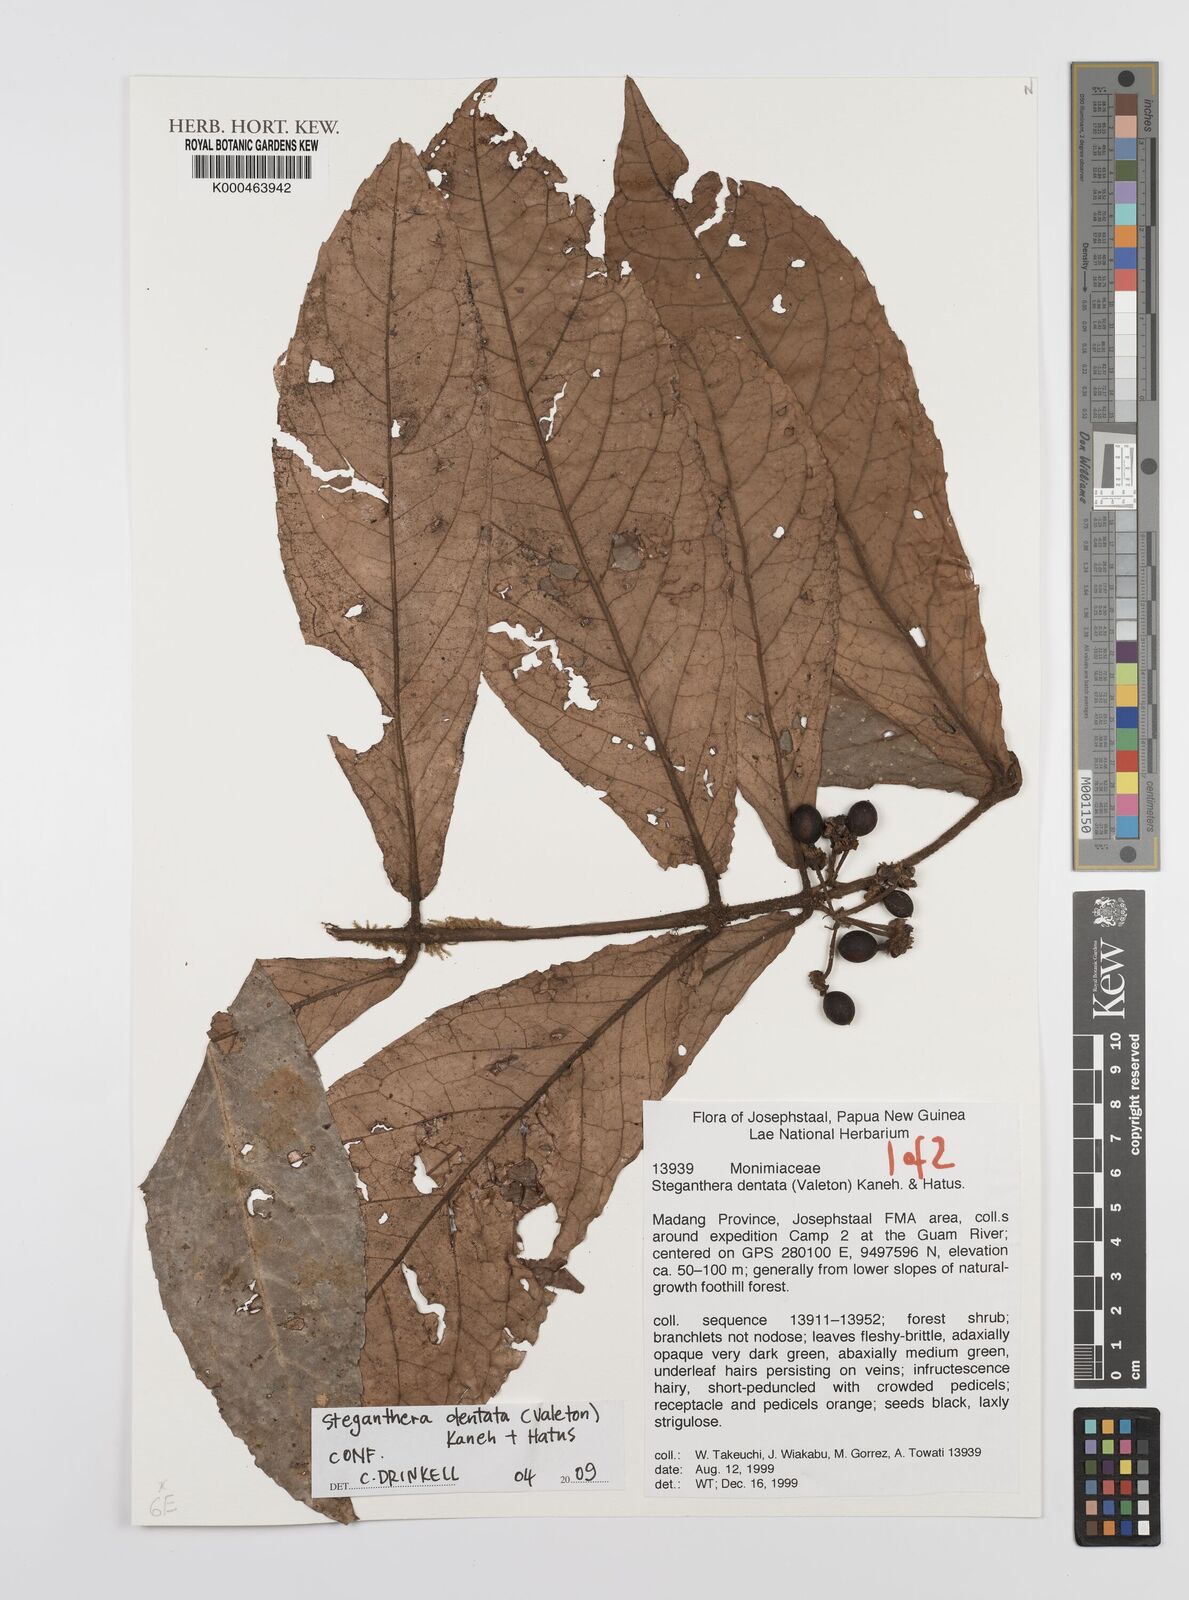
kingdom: Plantae
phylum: Tracheophyta
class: Magnoliopsida
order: Laurales
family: Monimiaceae
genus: Steganthera
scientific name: Steganthera dentata
